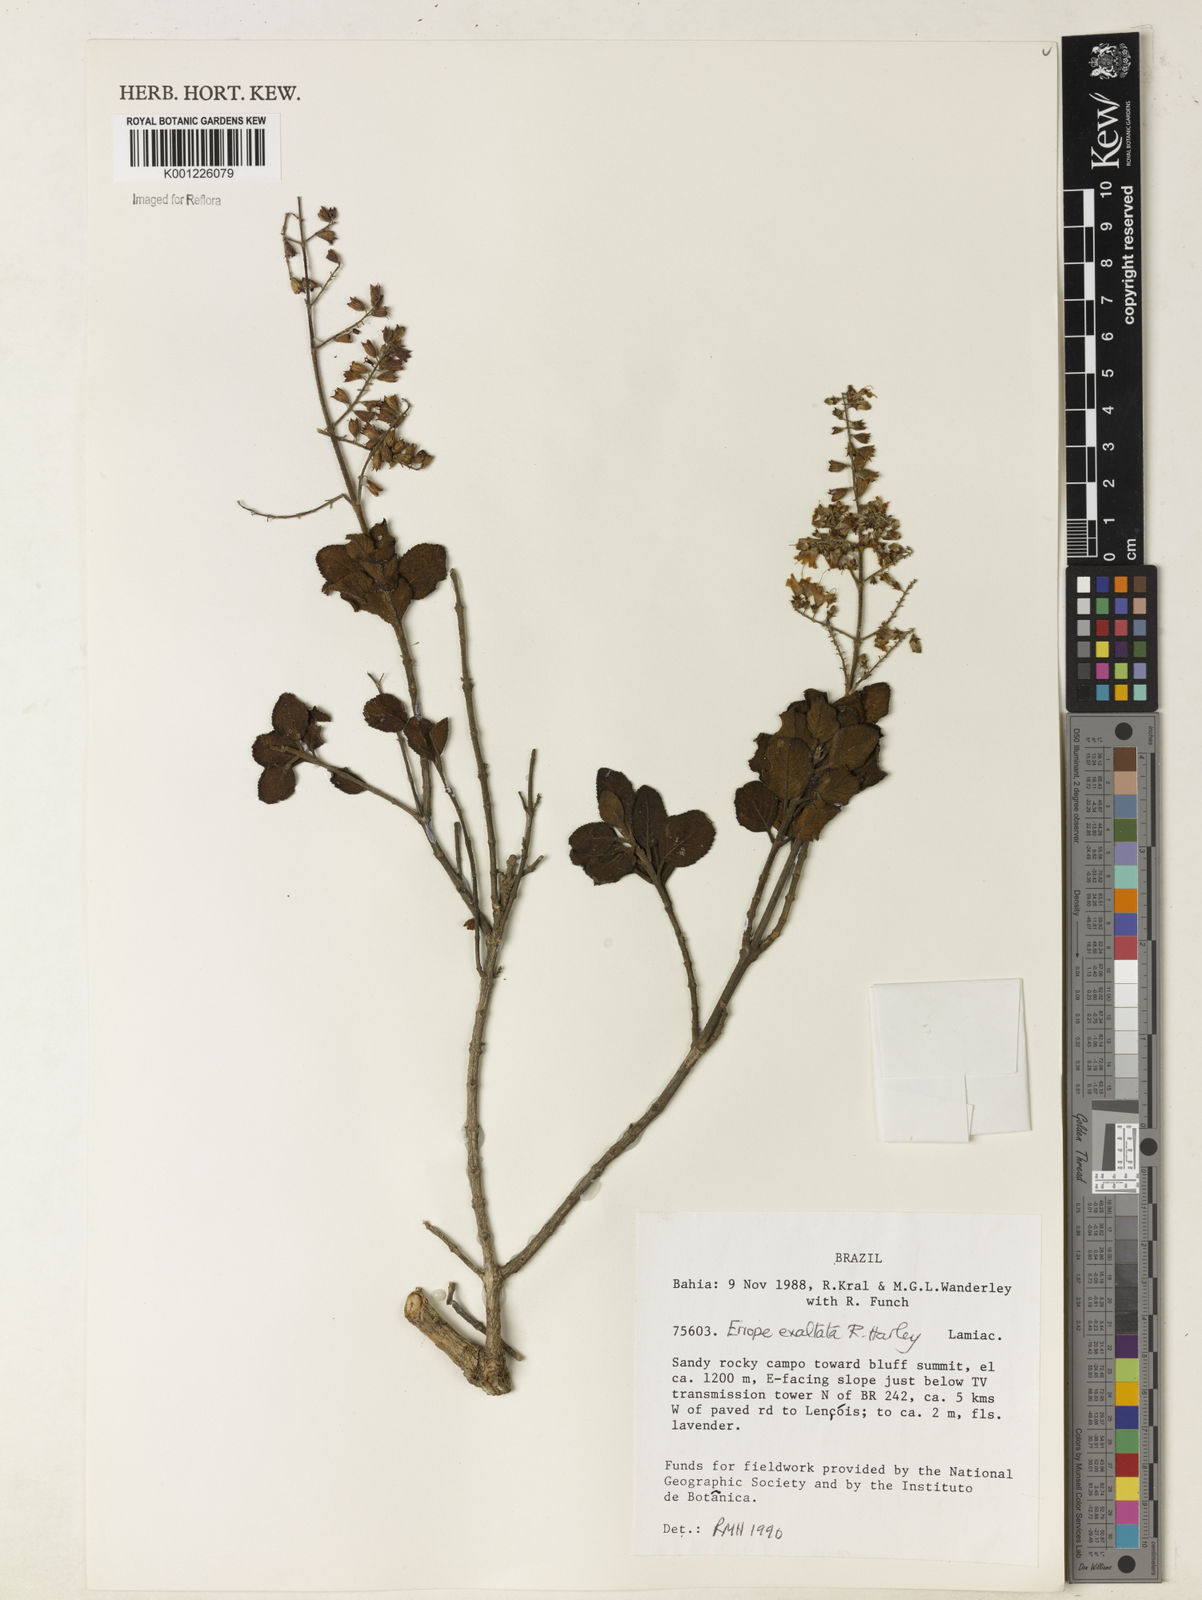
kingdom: Plantae
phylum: Tracheophyta
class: Magnoliopsida
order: Lamiales
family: Lamiaceae
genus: Eriope
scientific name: Eriope exaltata
